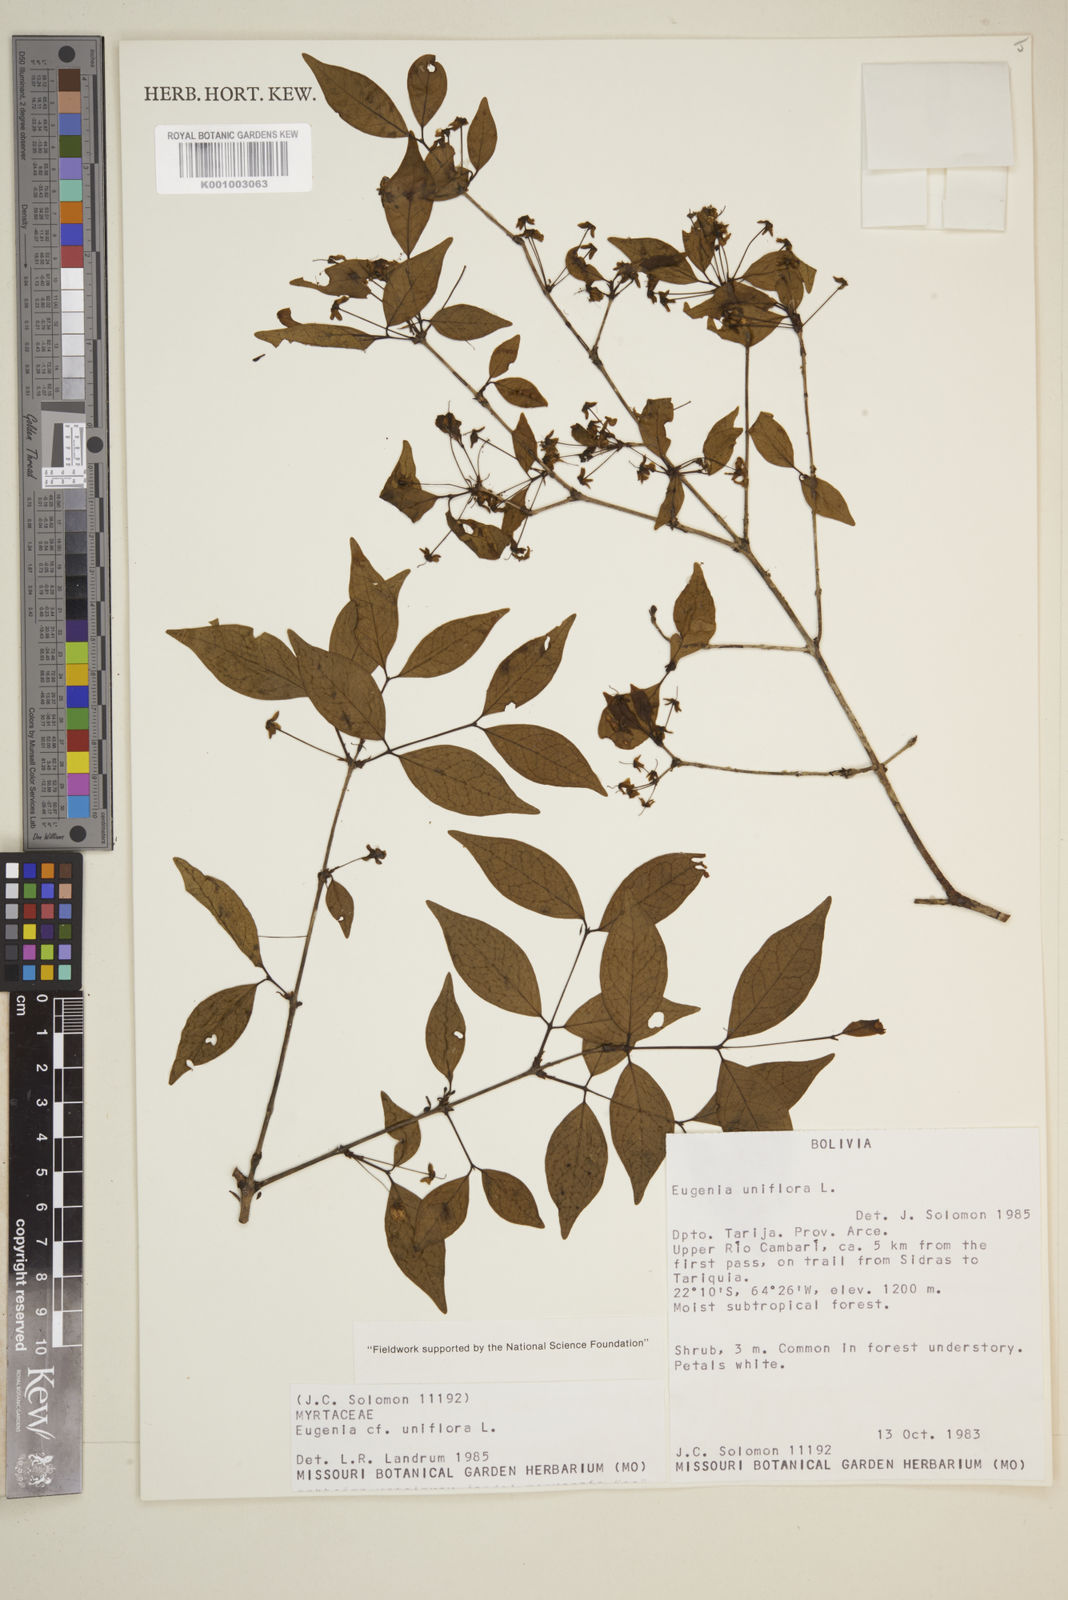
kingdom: Plantae
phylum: Tracheophyta
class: Magnoliopsida
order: Myrtales
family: Myrtaceae
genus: Eugenia
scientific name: Eugenia uniflora
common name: Surinam cherry
